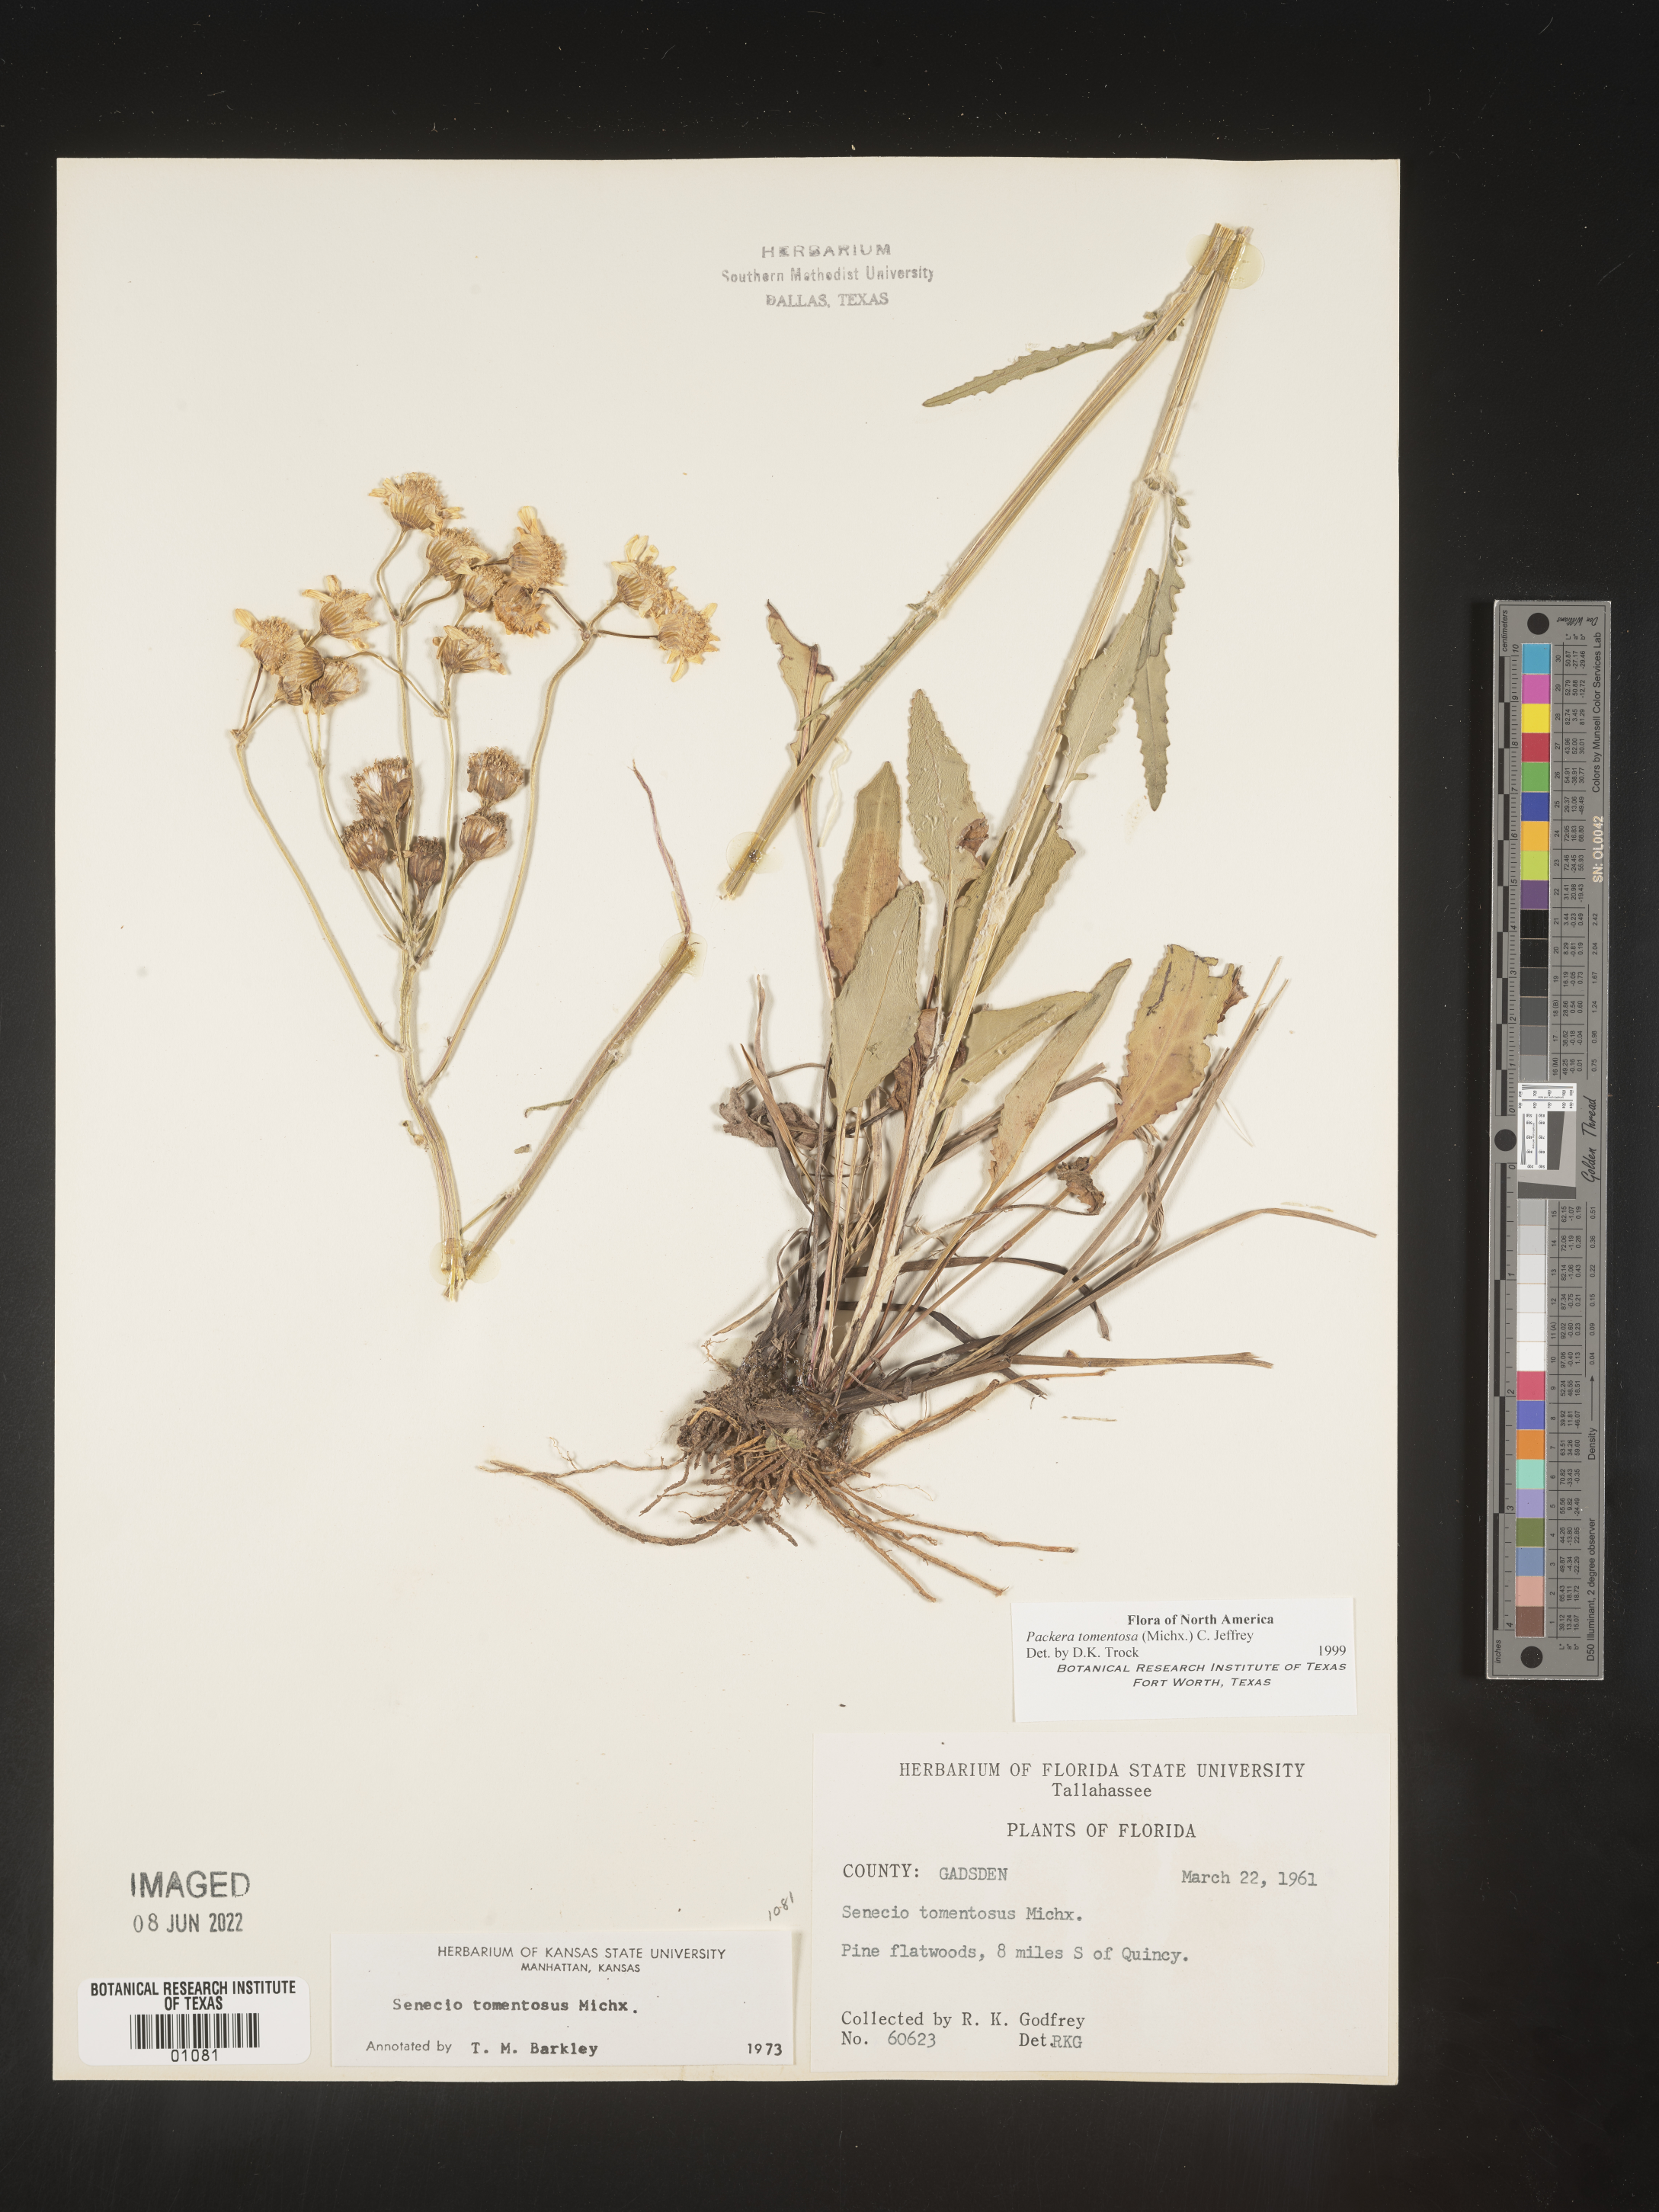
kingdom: Plantae
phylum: Tracheophyta
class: Magnoliopsida
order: Asterales
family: Asteraceae
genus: Packera
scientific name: Packera dubia
